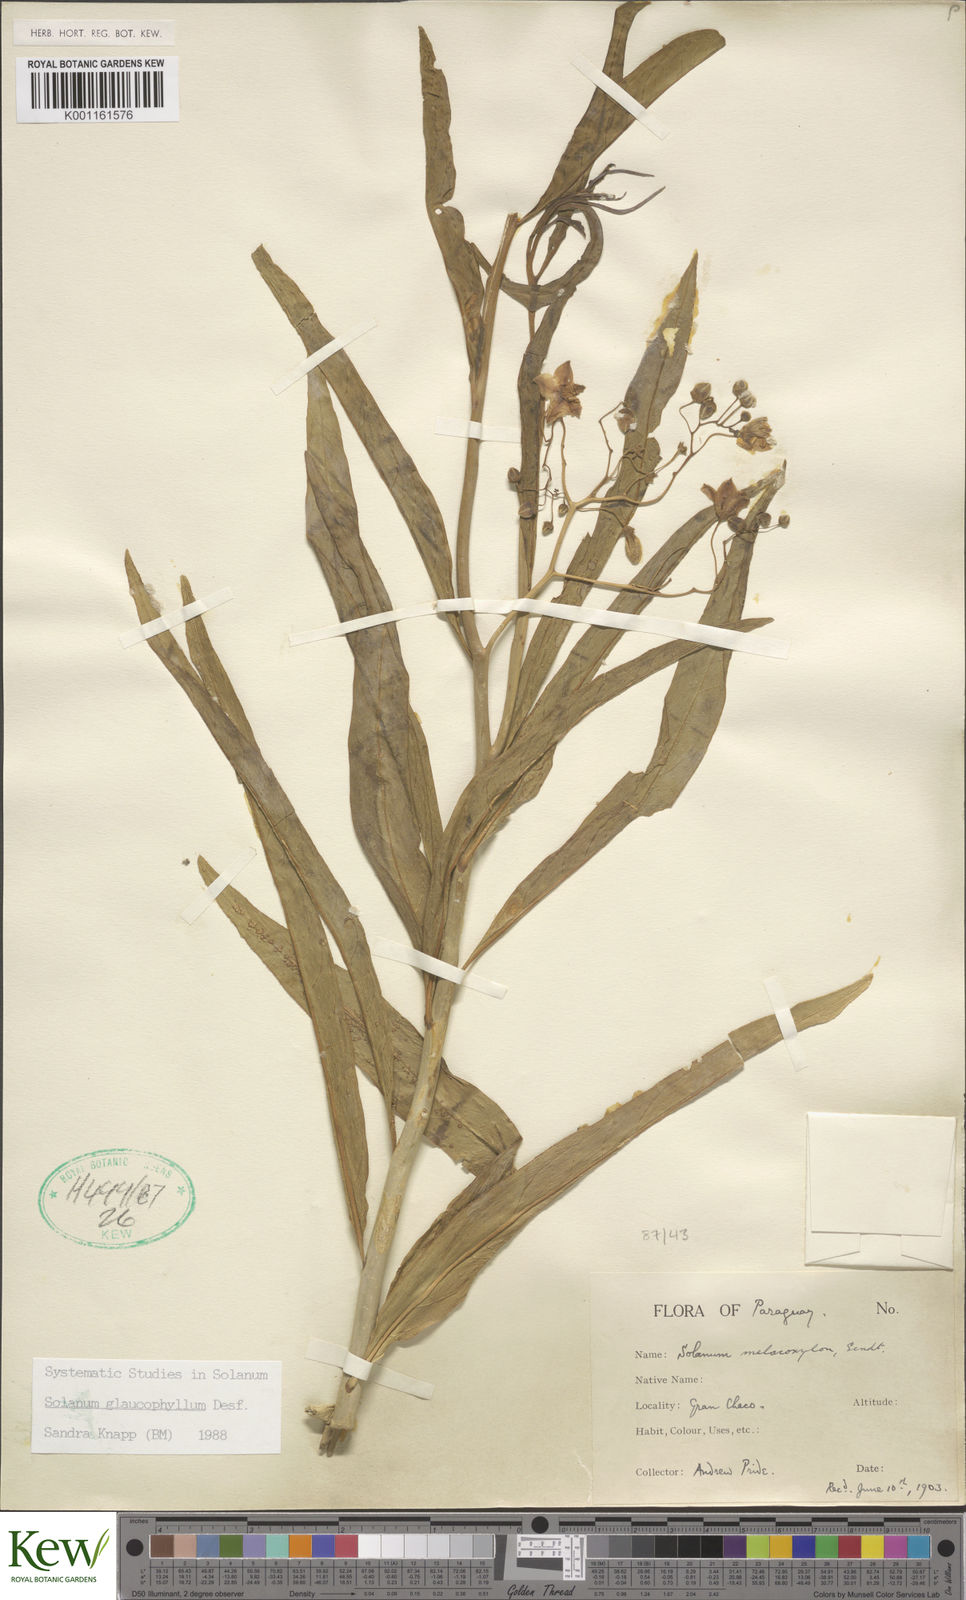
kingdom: Plantae
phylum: Tracheophyta
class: Magnoliopsida
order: Solanales
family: Solanaceae
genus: Solanum
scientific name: Solanum glaucophyllum
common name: Waxyleaf nightshade
